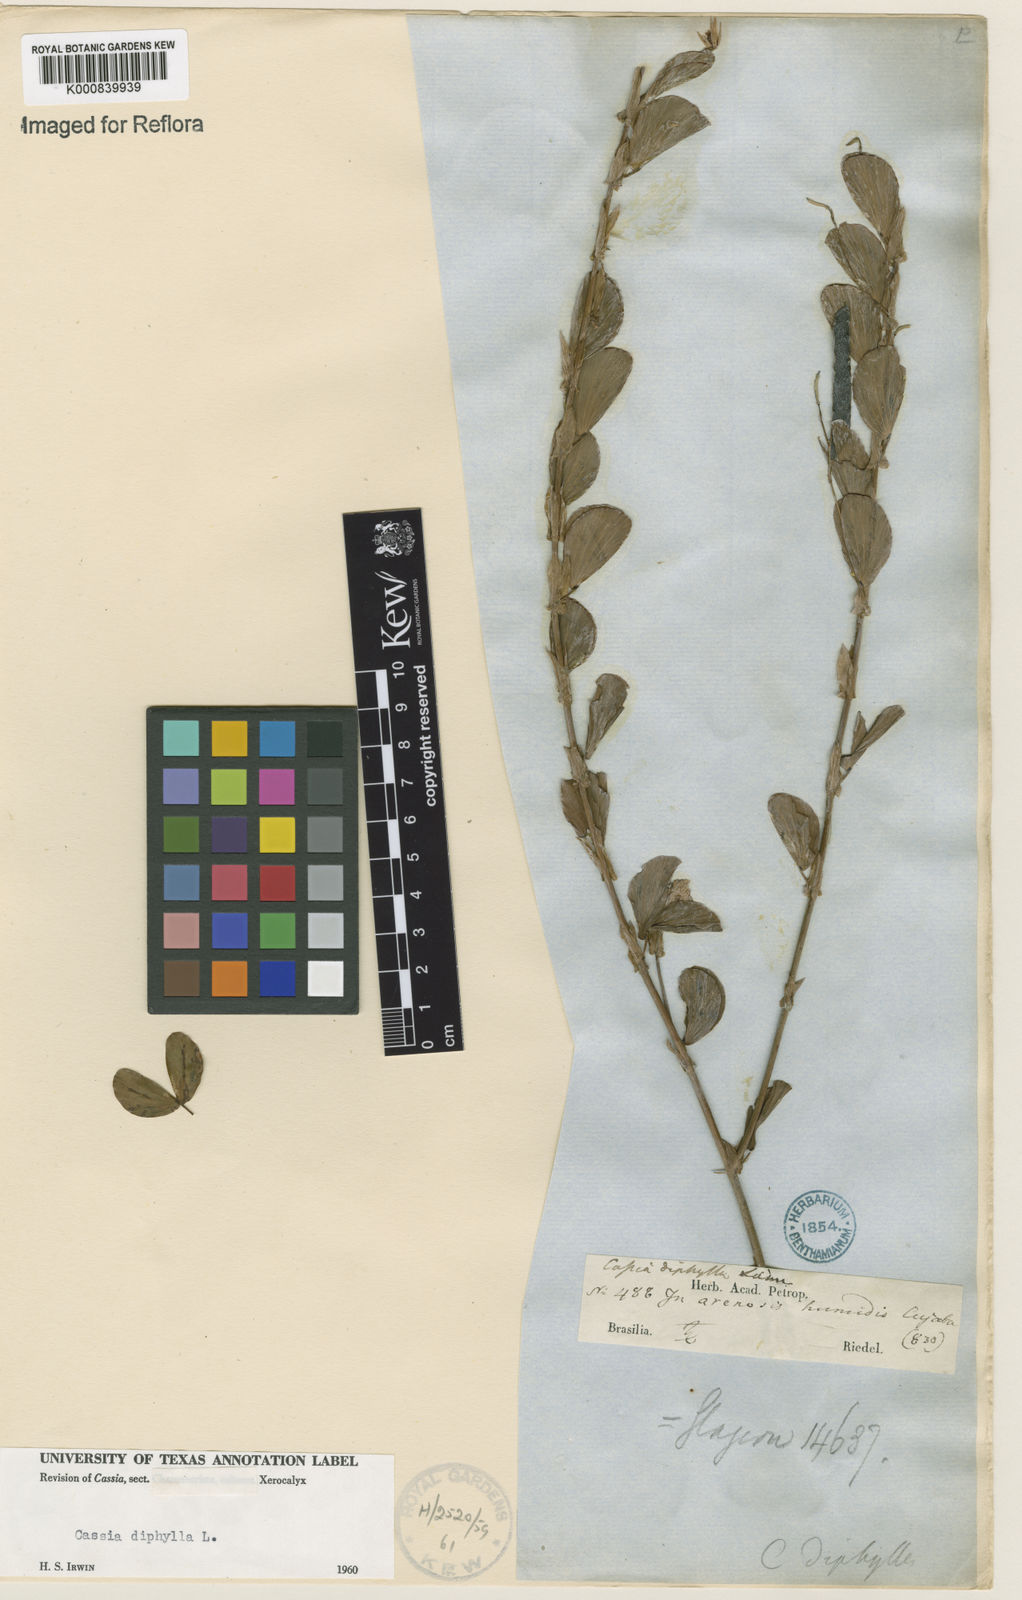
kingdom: Plantae
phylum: Tracheophyta
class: Magnoliopsida
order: Fabales
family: Fabaceae
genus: Chamaecrista
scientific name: Chamaecrista diphylla
